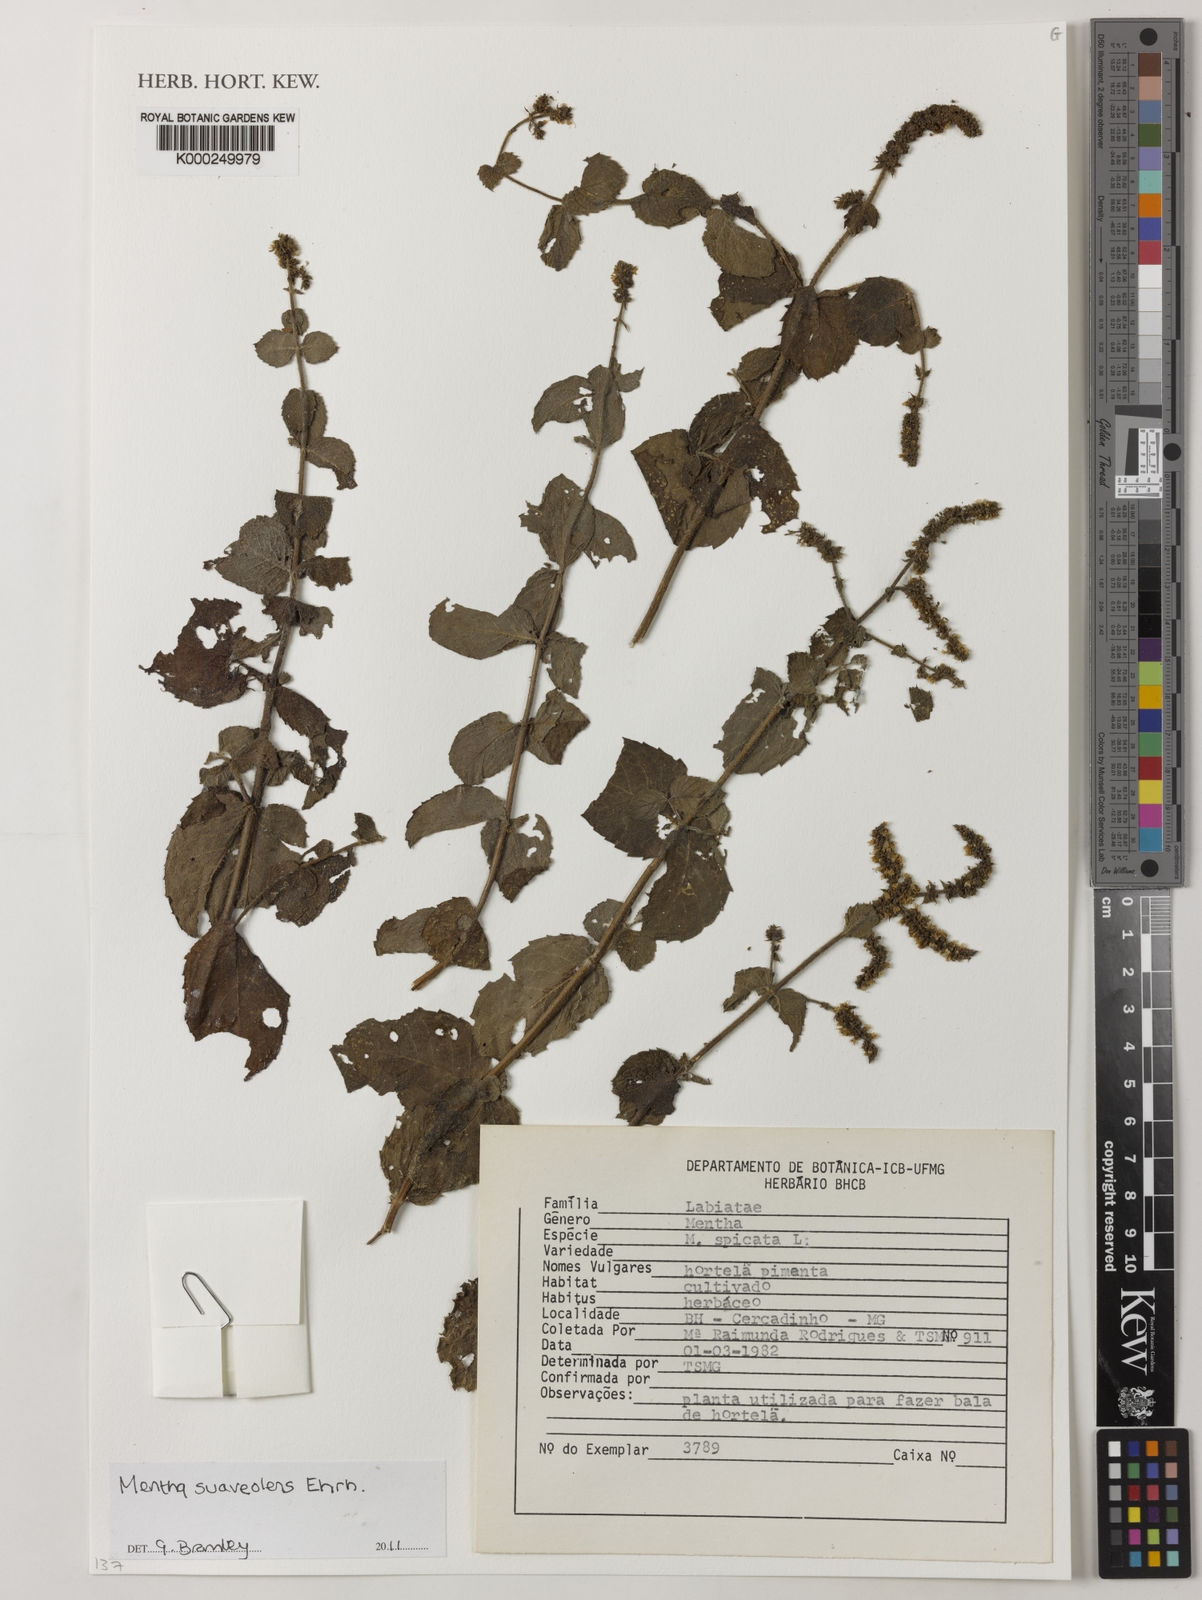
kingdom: Plantae
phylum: Tracheophyta
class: Magnoliopsida
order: Lamiales
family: Lamiaceae
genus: Mentha
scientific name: Mentha suaveolens
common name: Apple mint
